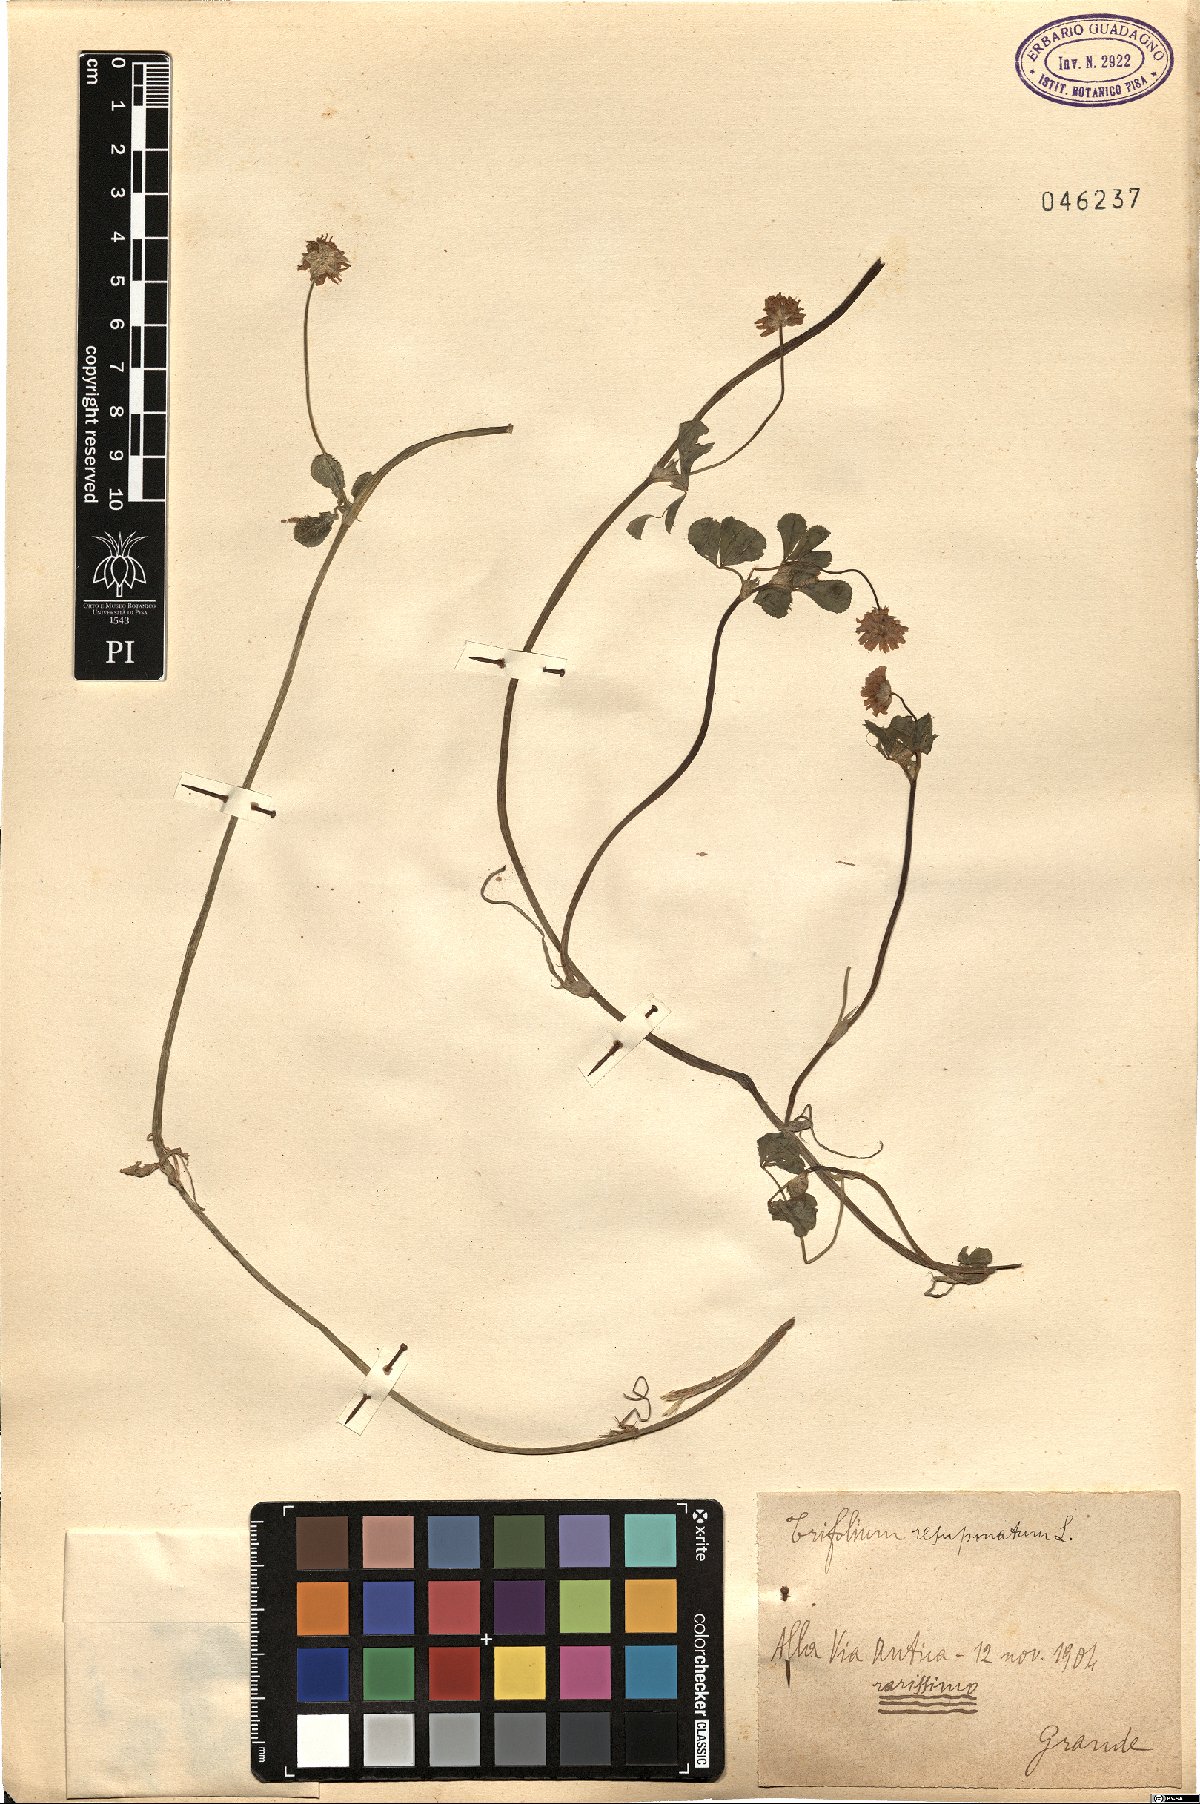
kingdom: Plantae
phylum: Tracheophyta
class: Magnoliopsida
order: Fabales
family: Fabaceae
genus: Trifolium
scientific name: Trifolium resupinatum
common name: Reversed clover
